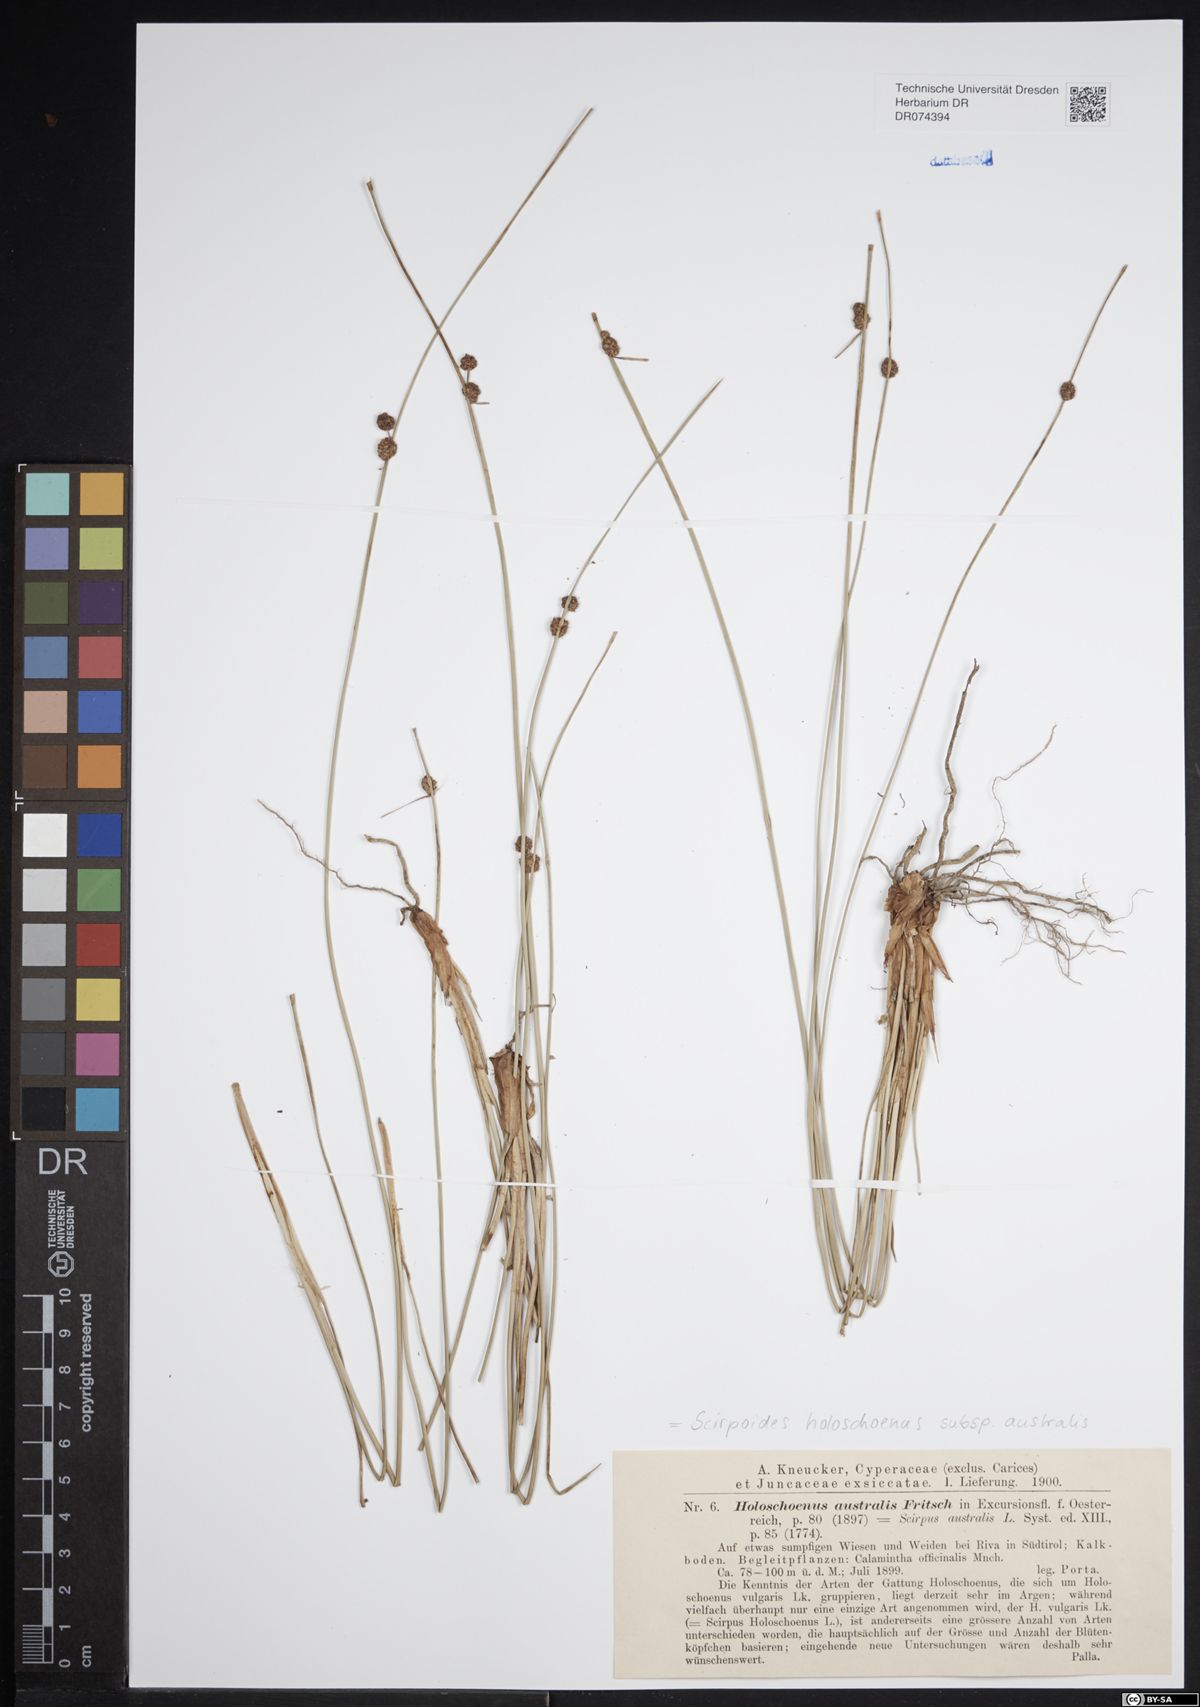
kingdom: Plantae
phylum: Tracheophyta
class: Liliopsida
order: Poales
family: Cyperaceae
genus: Scirpoides
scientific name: Scirpoides holoschoenus
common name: Round-headed club-rush
